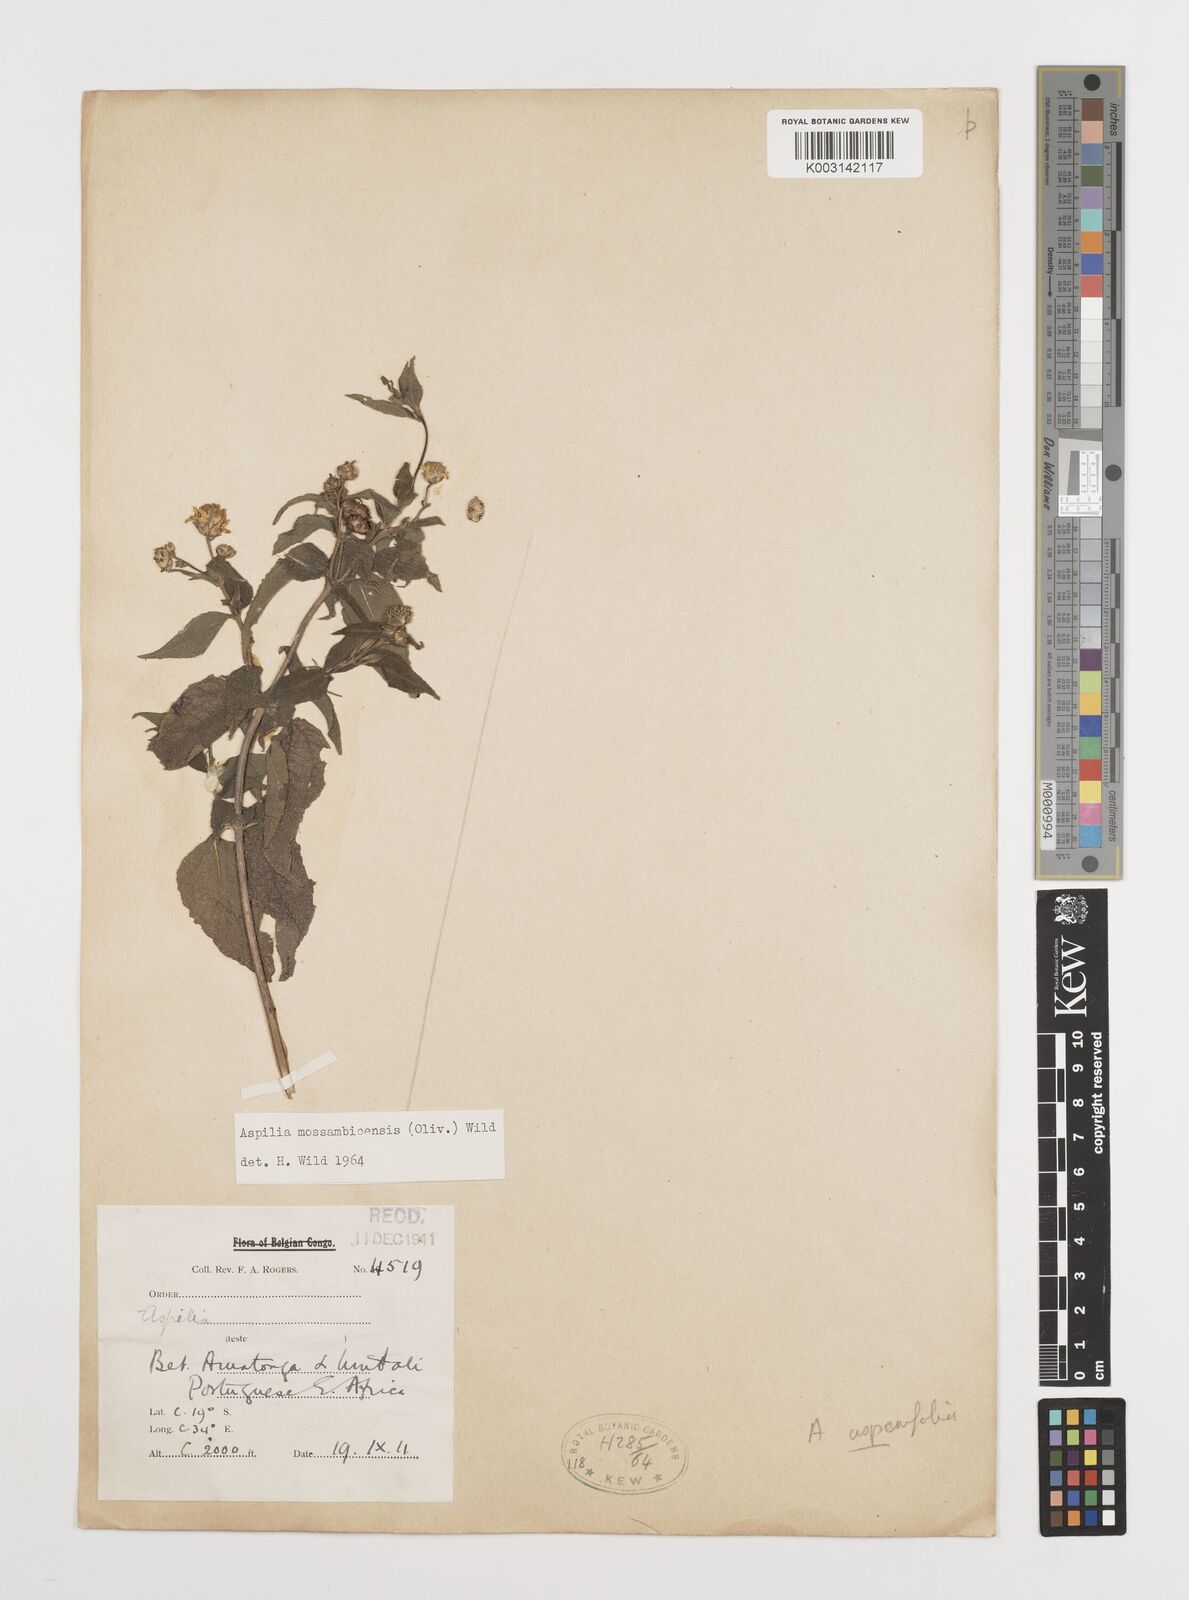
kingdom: Plantae
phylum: Tracheophyta
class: Magnoliopsida
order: Asterales
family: Asteraceae
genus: Aspilia
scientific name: Aspilia mossambicensis
